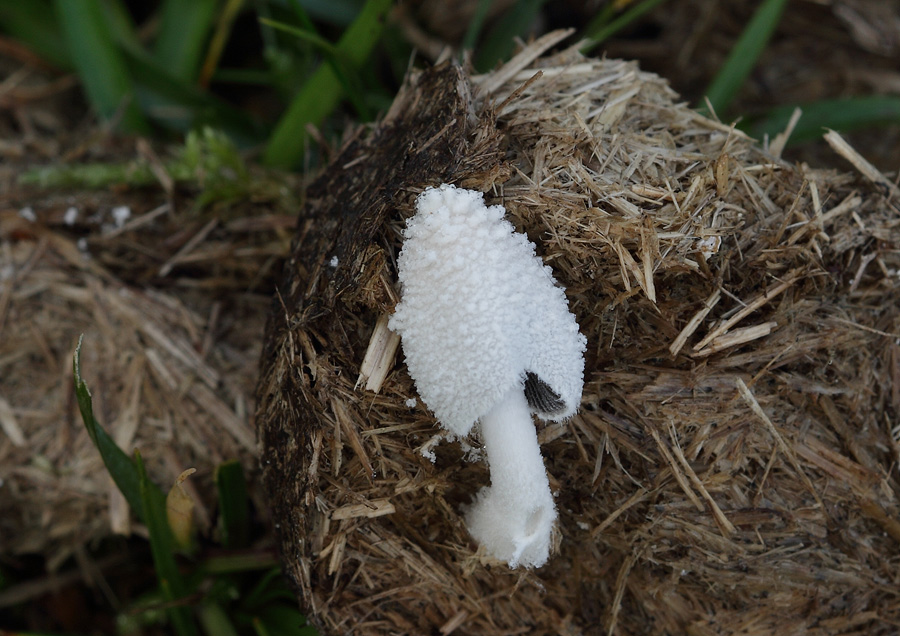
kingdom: Fungi
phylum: Basidiomycota
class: Agaricomycetes
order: Agaricales
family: Psathyrellaceae
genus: Coprinopsis
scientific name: Coprinopsis nivea
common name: snehvid blækhat
